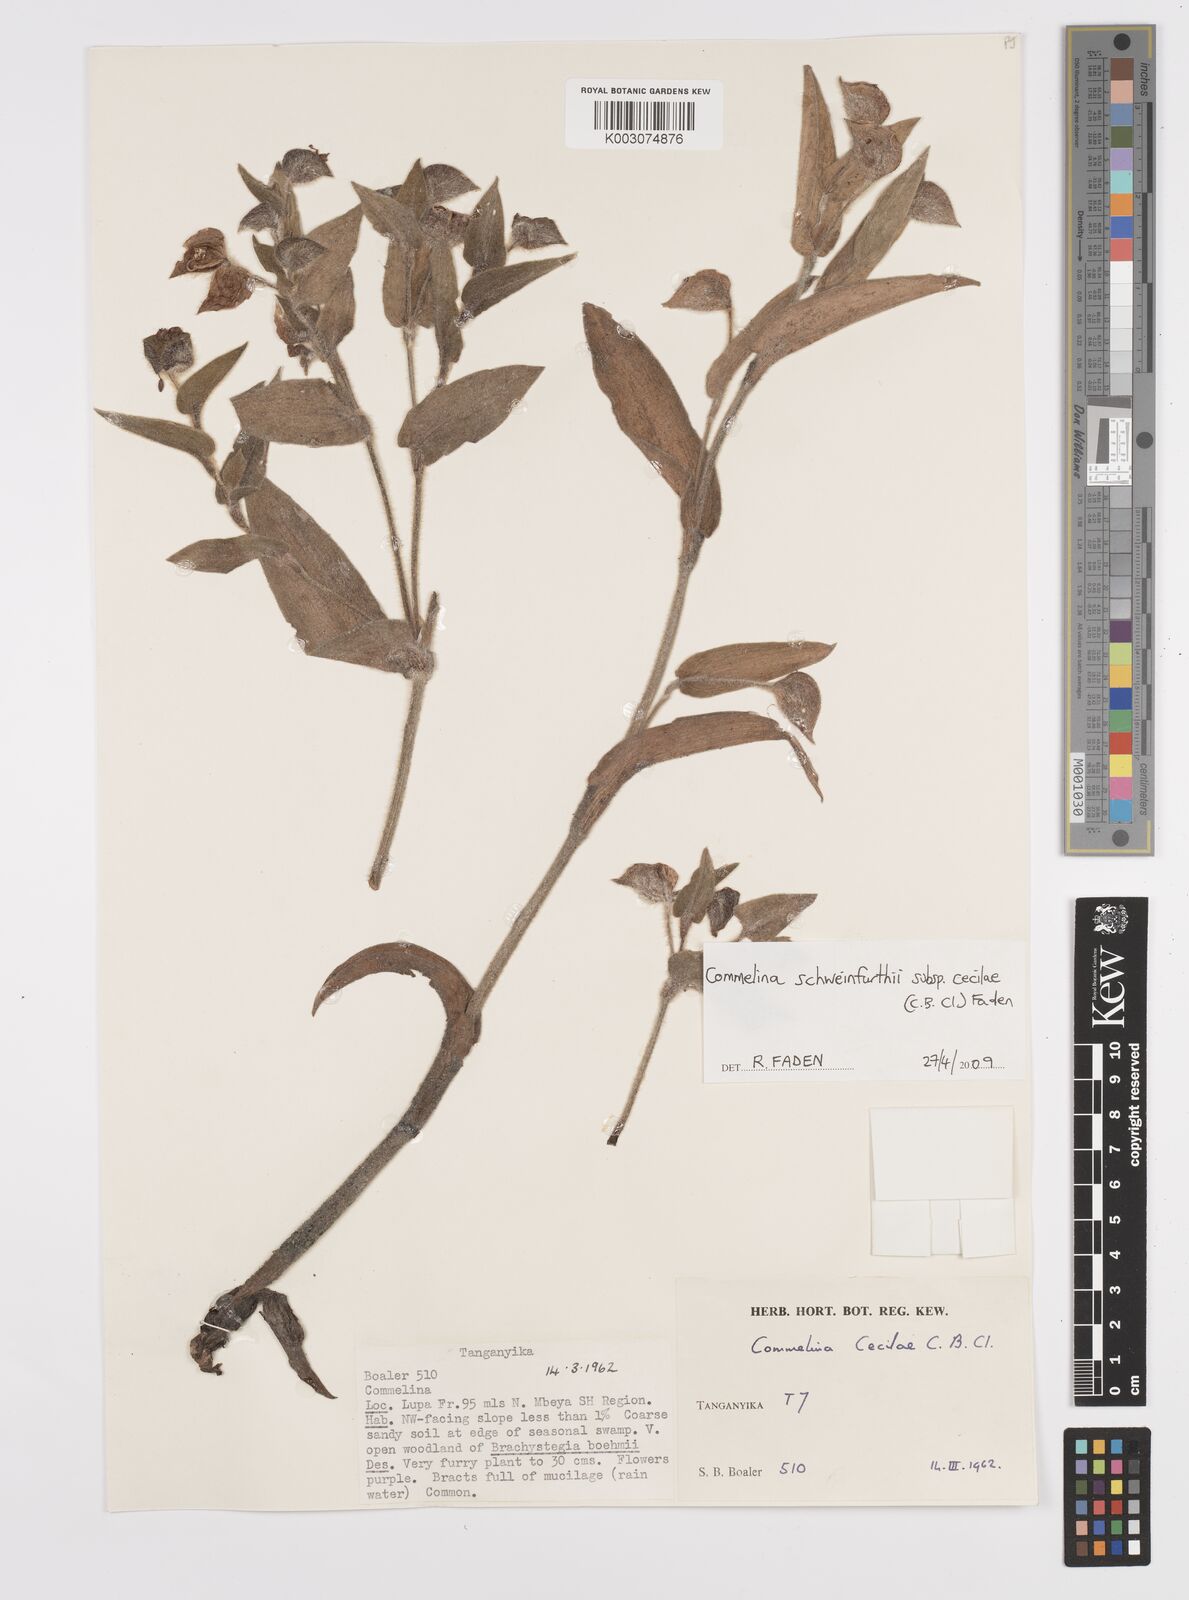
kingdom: Plantae
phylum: Tracheophyta
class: Liliopsida
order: Commelinales
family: Commelinaceae
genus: Commelina
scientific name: Commelina cecilae
